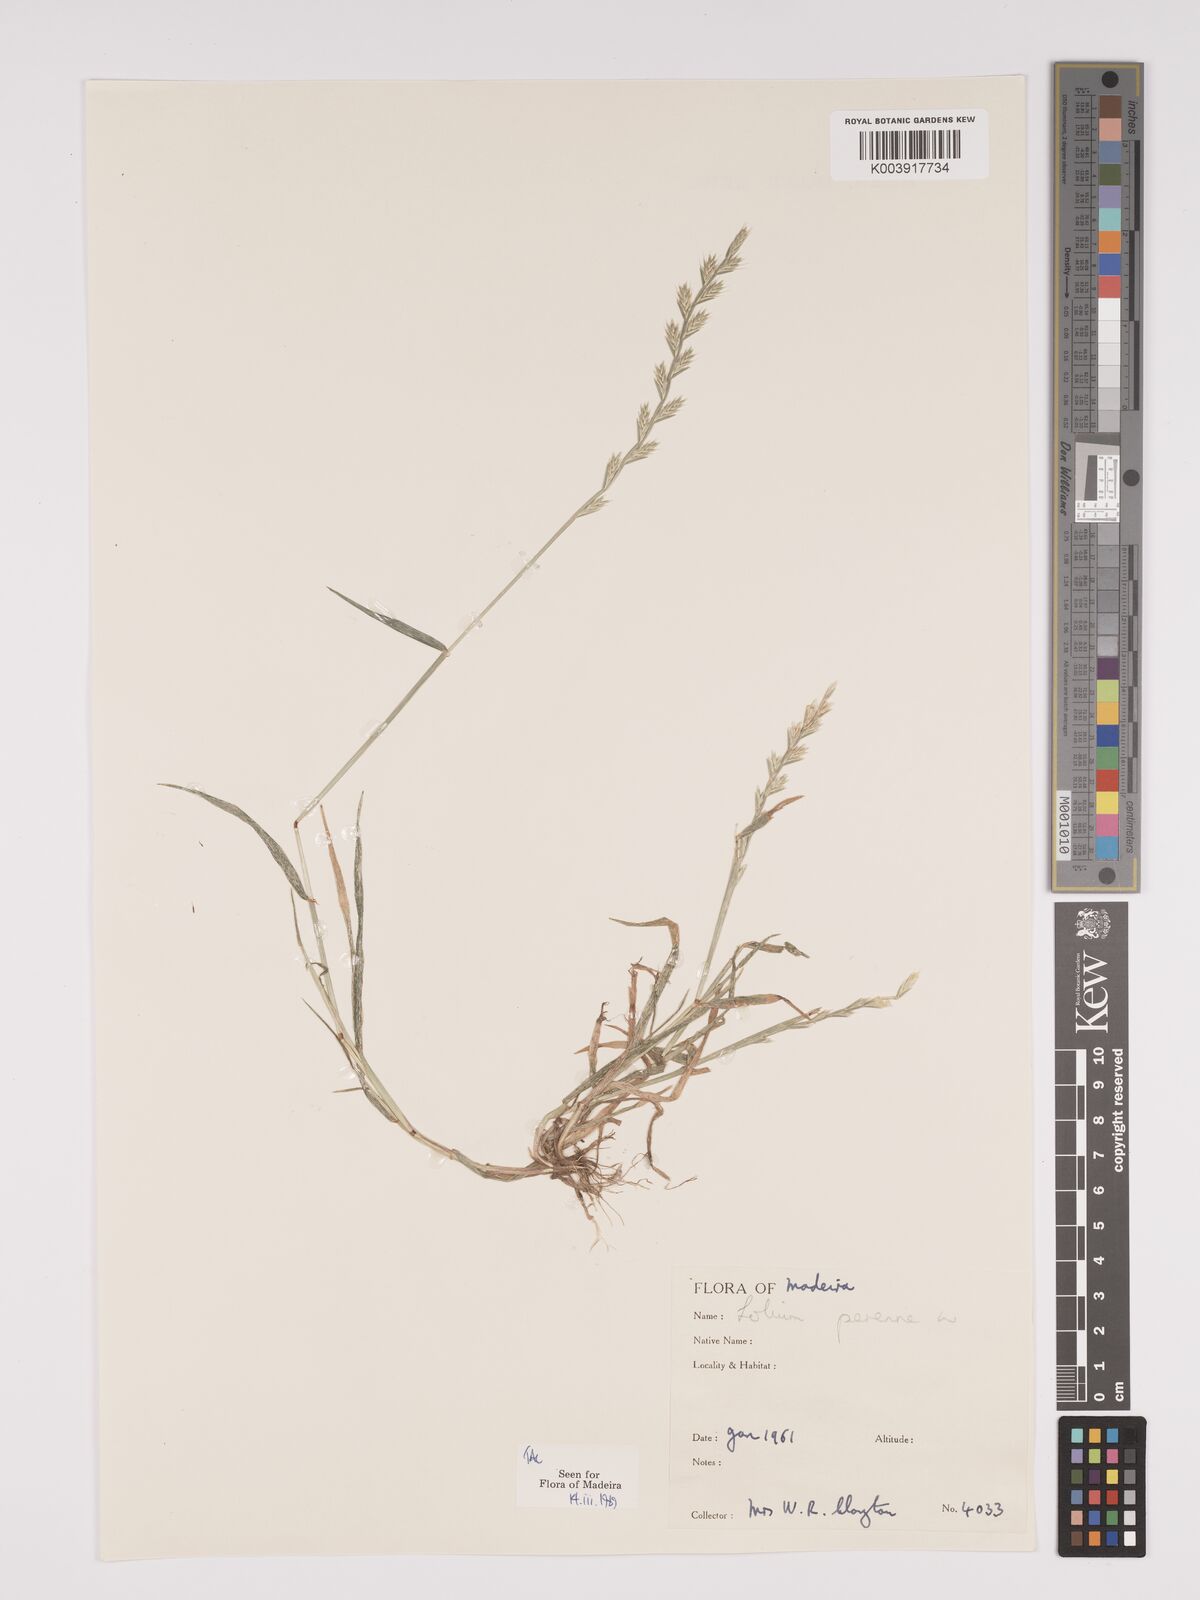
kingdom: Plantae
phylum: Tracheophyta
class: Liliopsida
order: Poales
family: Poaceae
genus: Lolium
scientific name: Lolium perenne
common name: Perennial ryegrass
